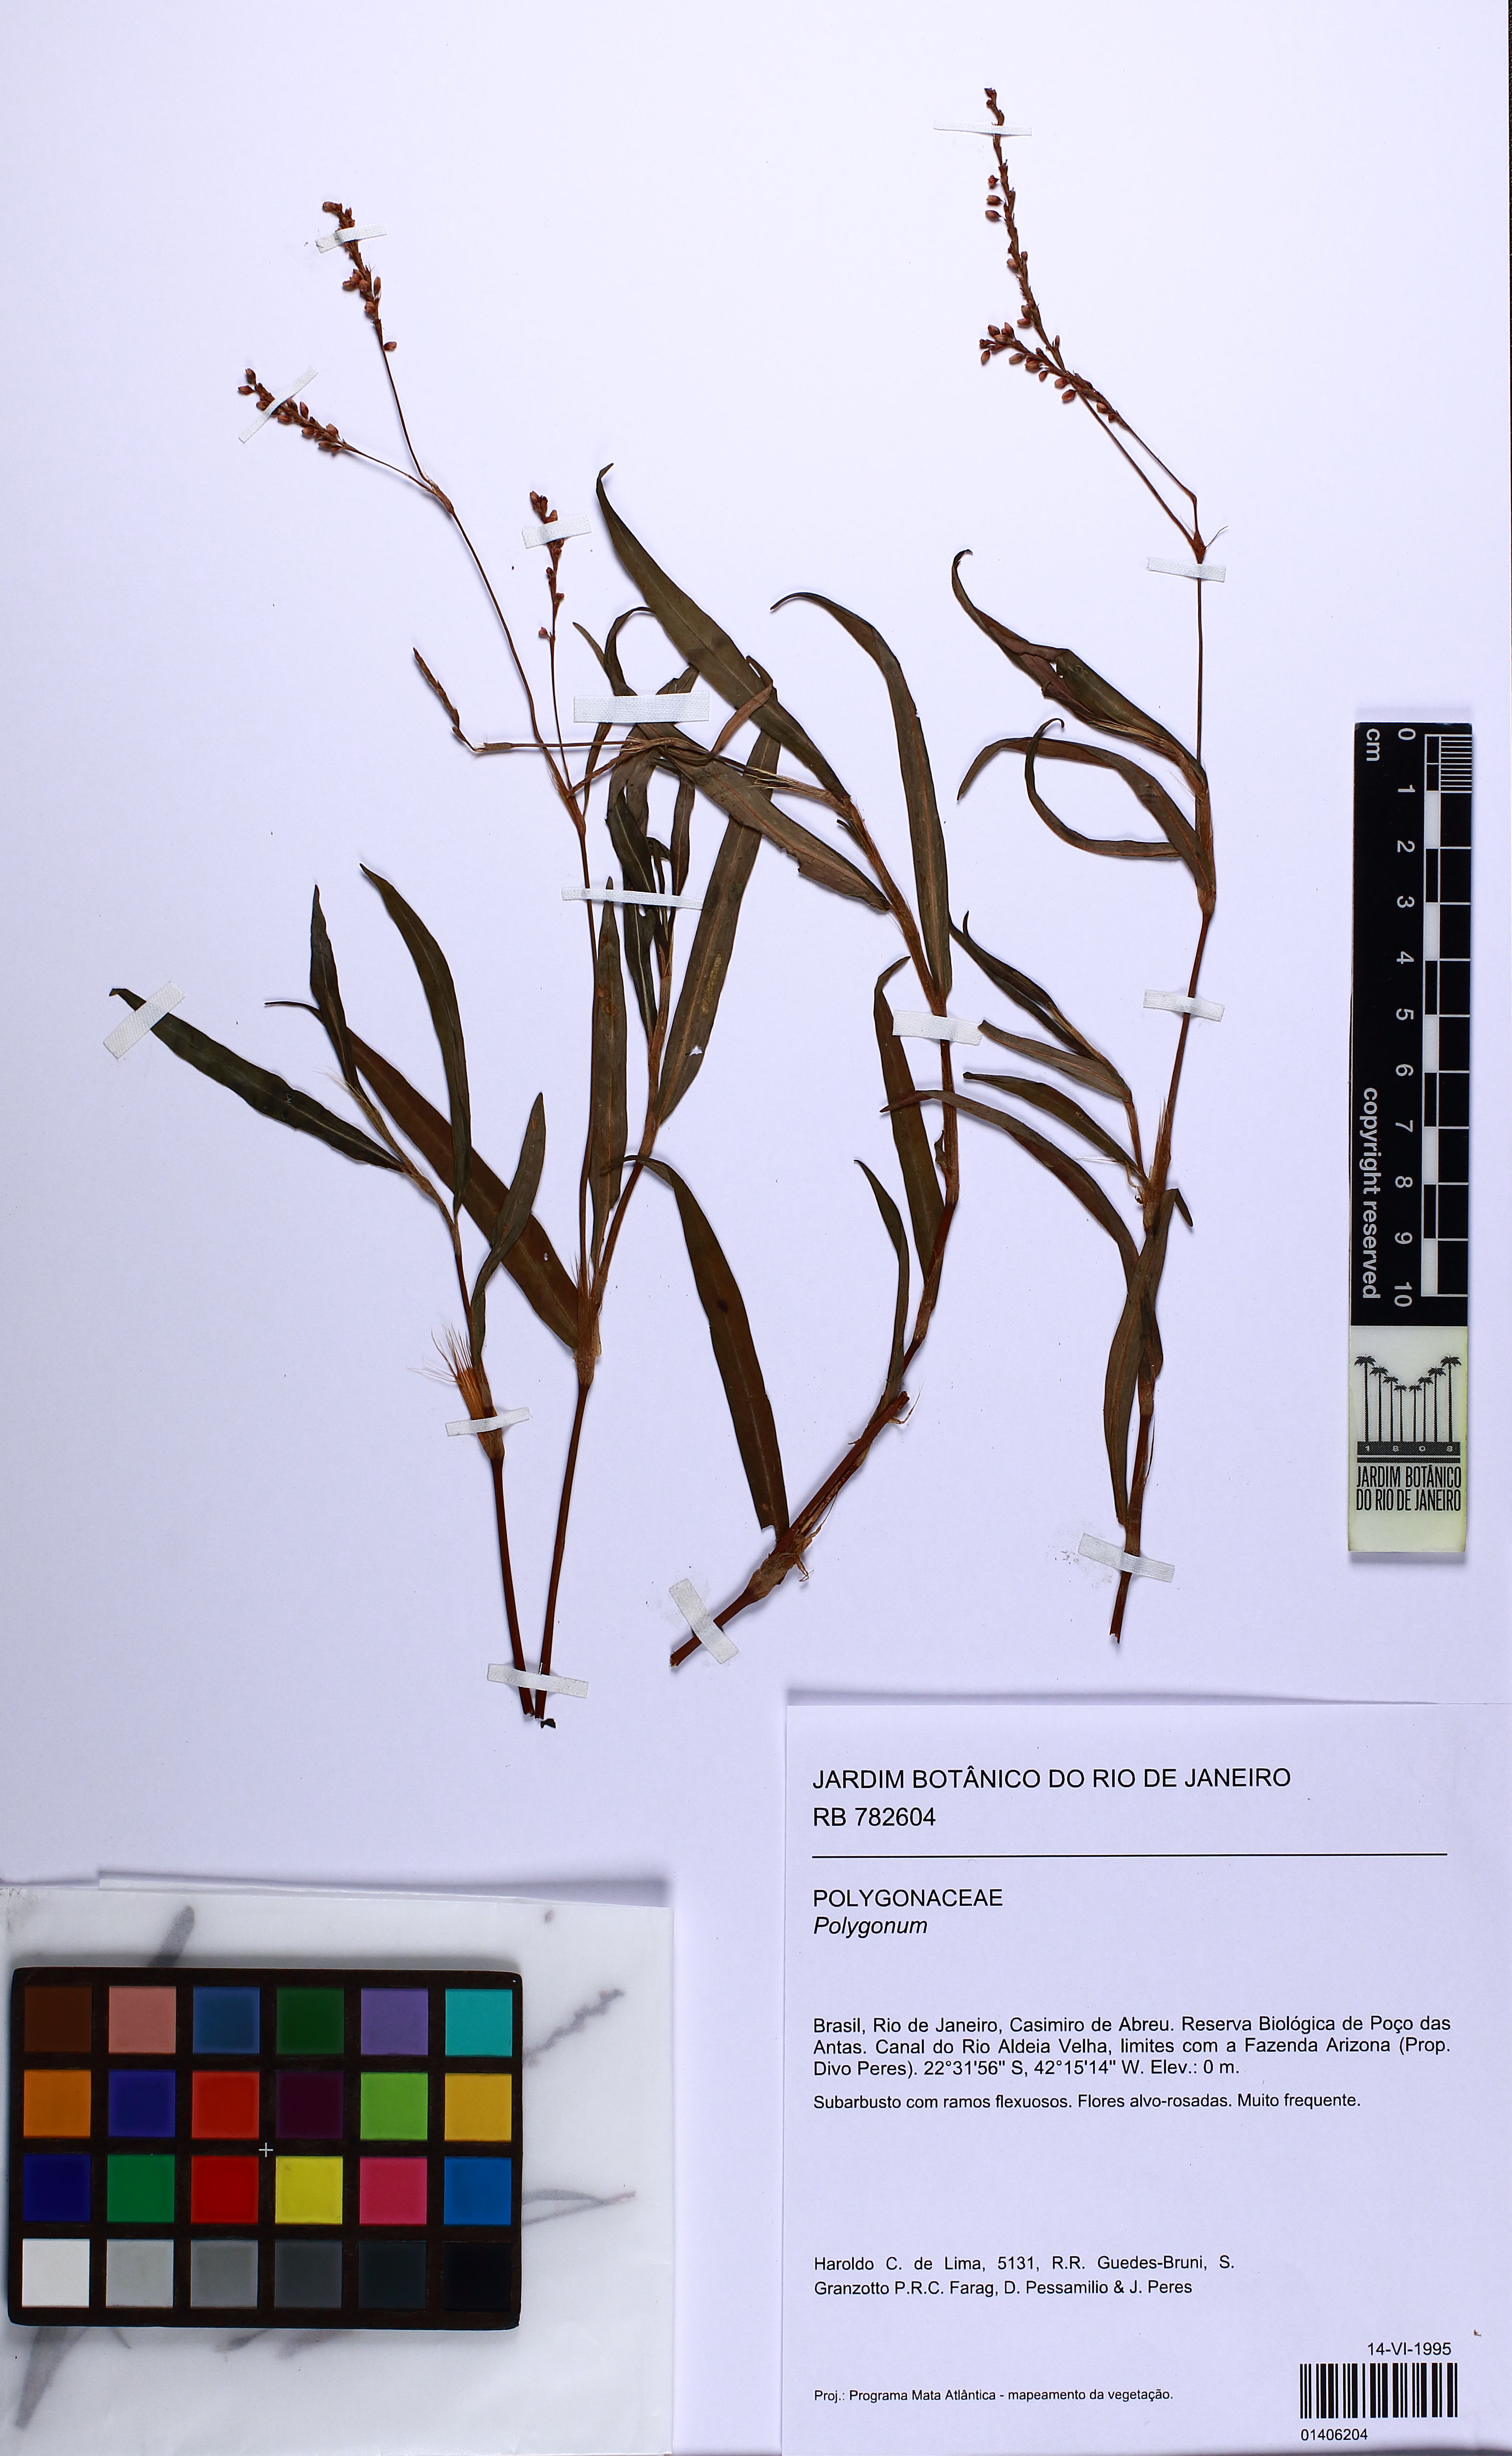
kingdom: Plantae
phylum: Tracheophyta
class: Magnoliopsida
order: Caryophyllales
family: Polygonaceae
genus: Polygonum
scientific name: Polygonum
